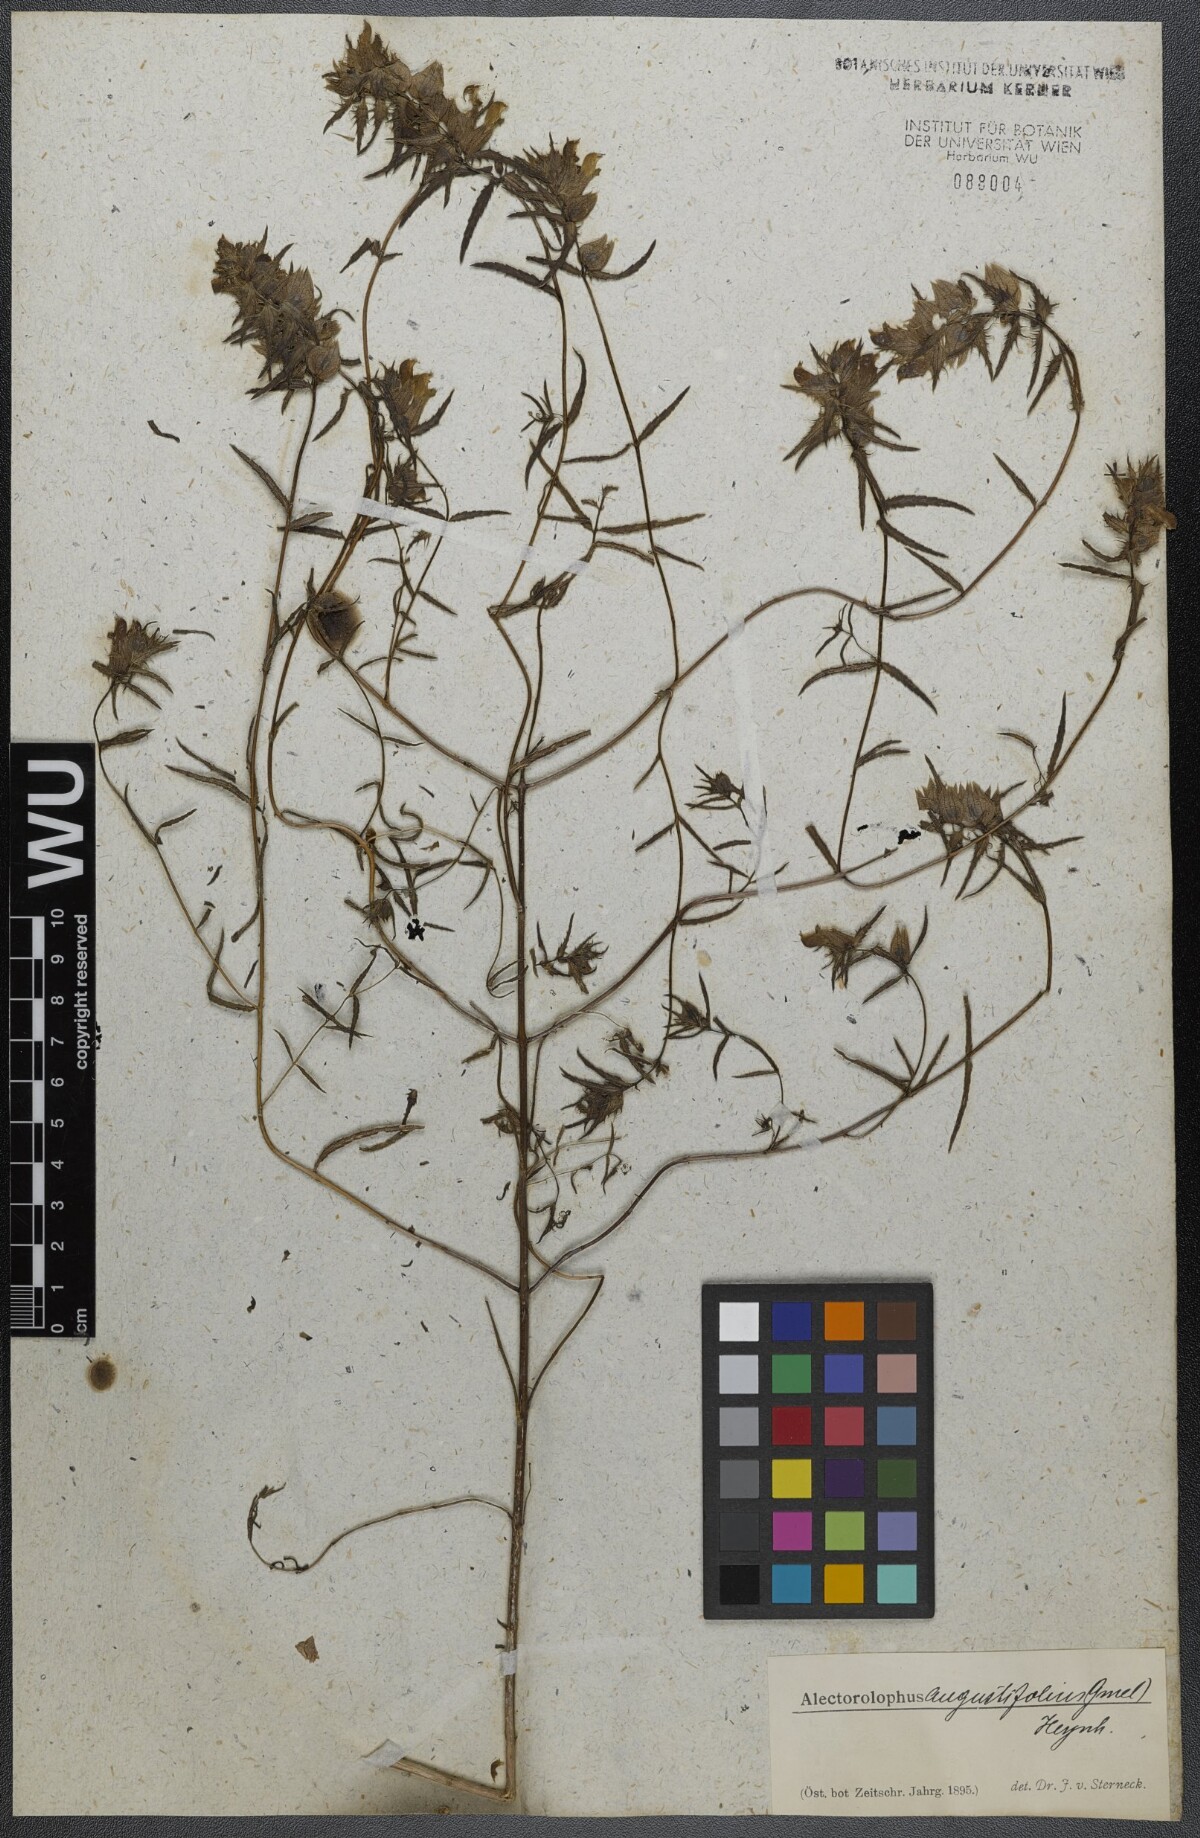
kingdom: Plantae
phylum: Tracheophyta
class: Magnoliopsida
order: Lamiales
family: Orobanchaceae
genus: Rhinanthus
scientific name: Rhinanthus
